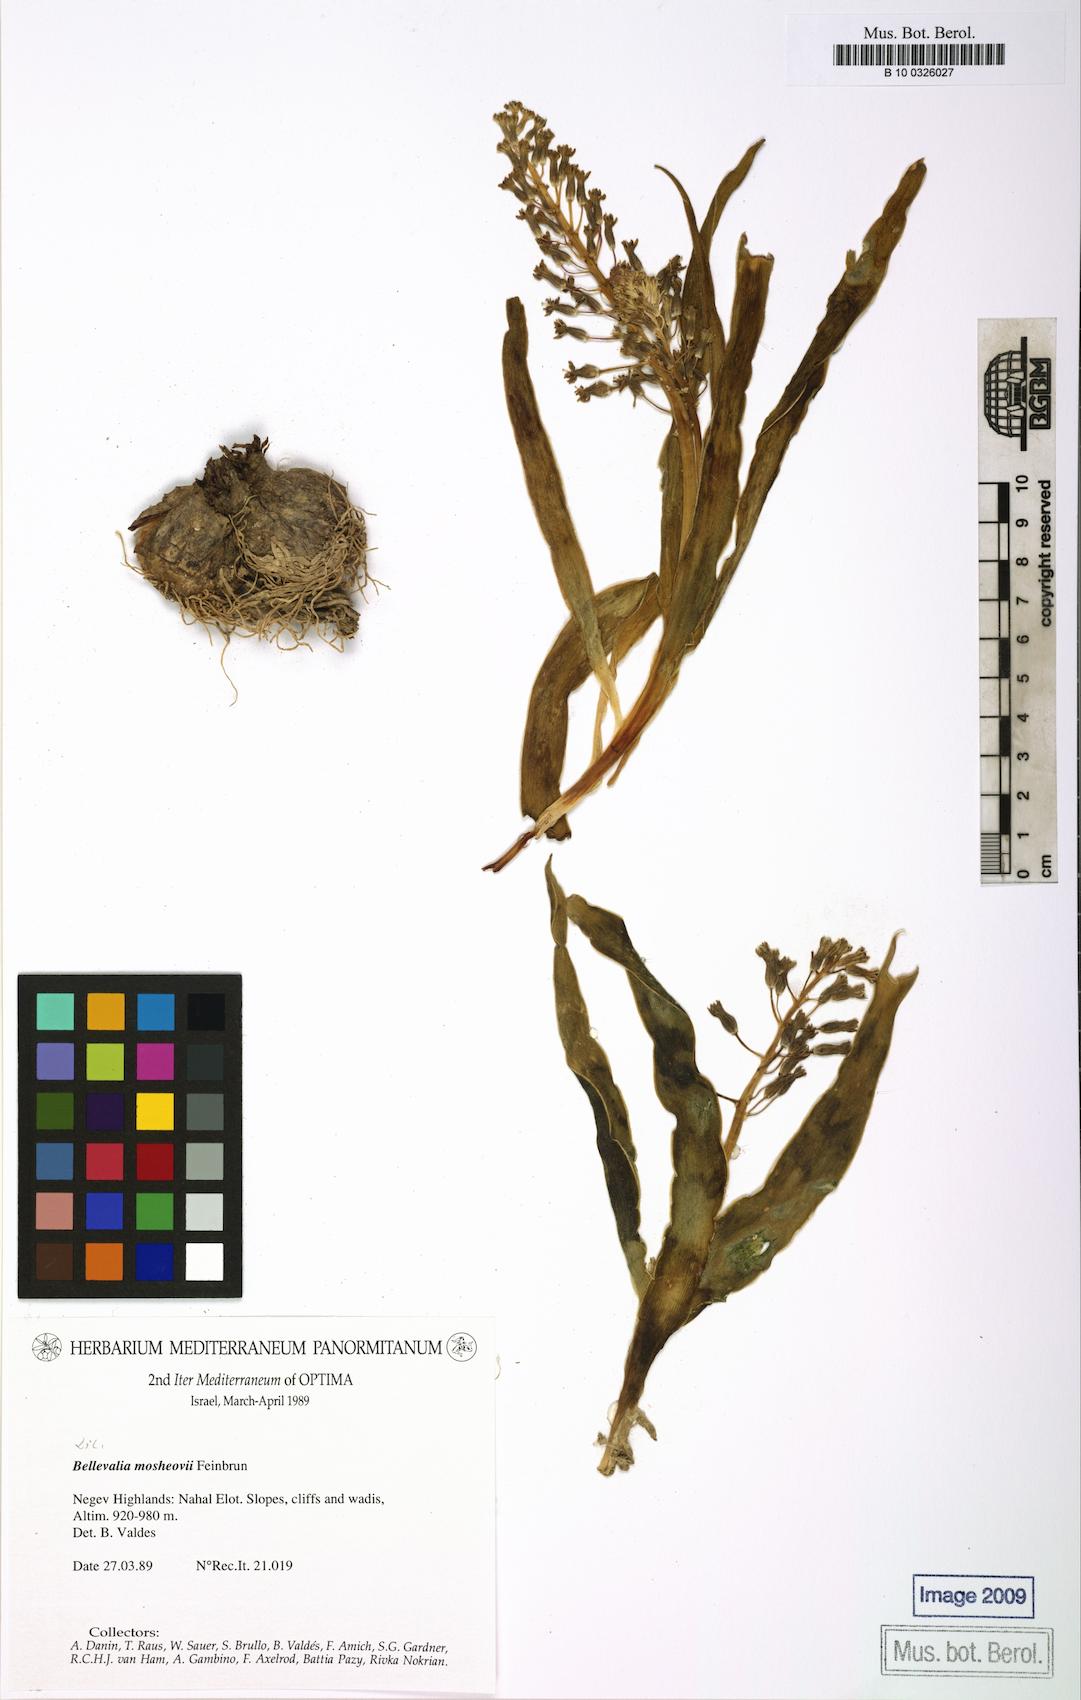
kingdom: Plantae
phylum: Tracheophyta
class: Liliopsida
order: Asparagales
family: Asparagaceae
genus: Bellevalia
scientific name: Bellevalia mosheovii
